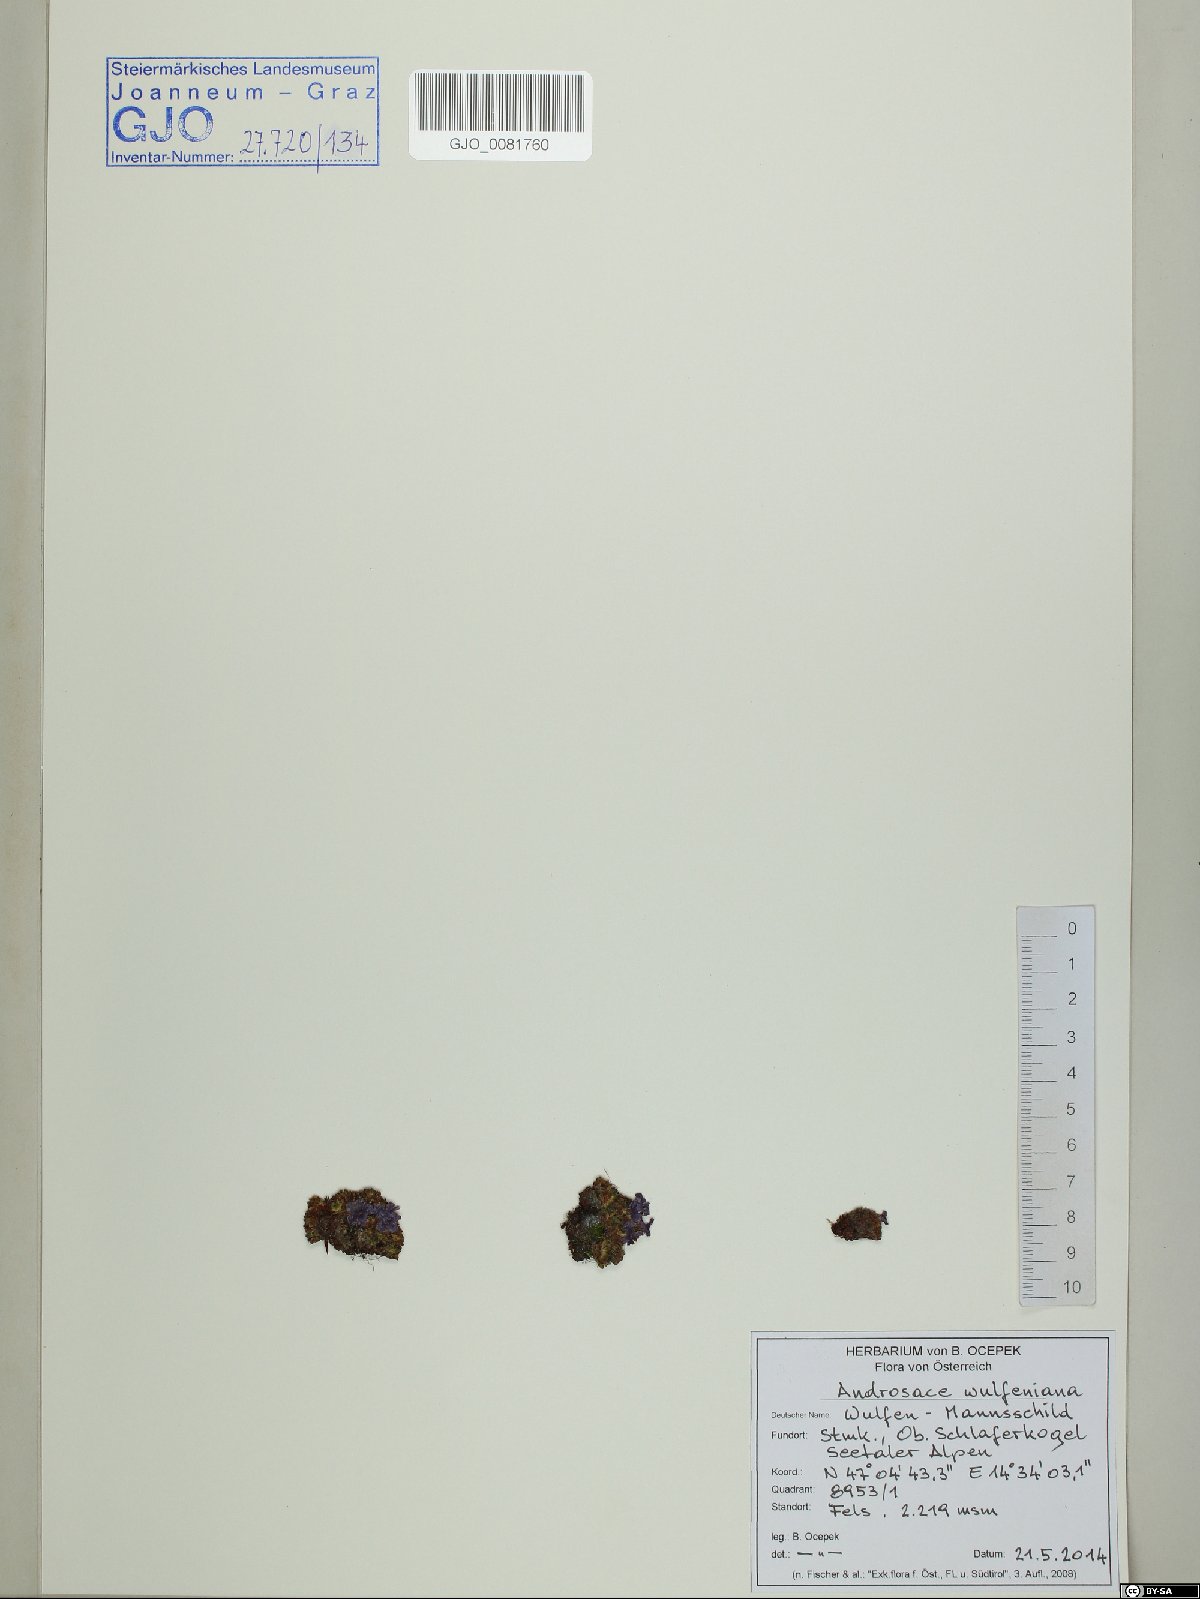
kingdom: Plantae
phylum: Tracheophyta
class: Magnoliopsida
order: Ericales
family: Primulaceae
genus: Androsace
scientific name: Androsace wulfeniana
